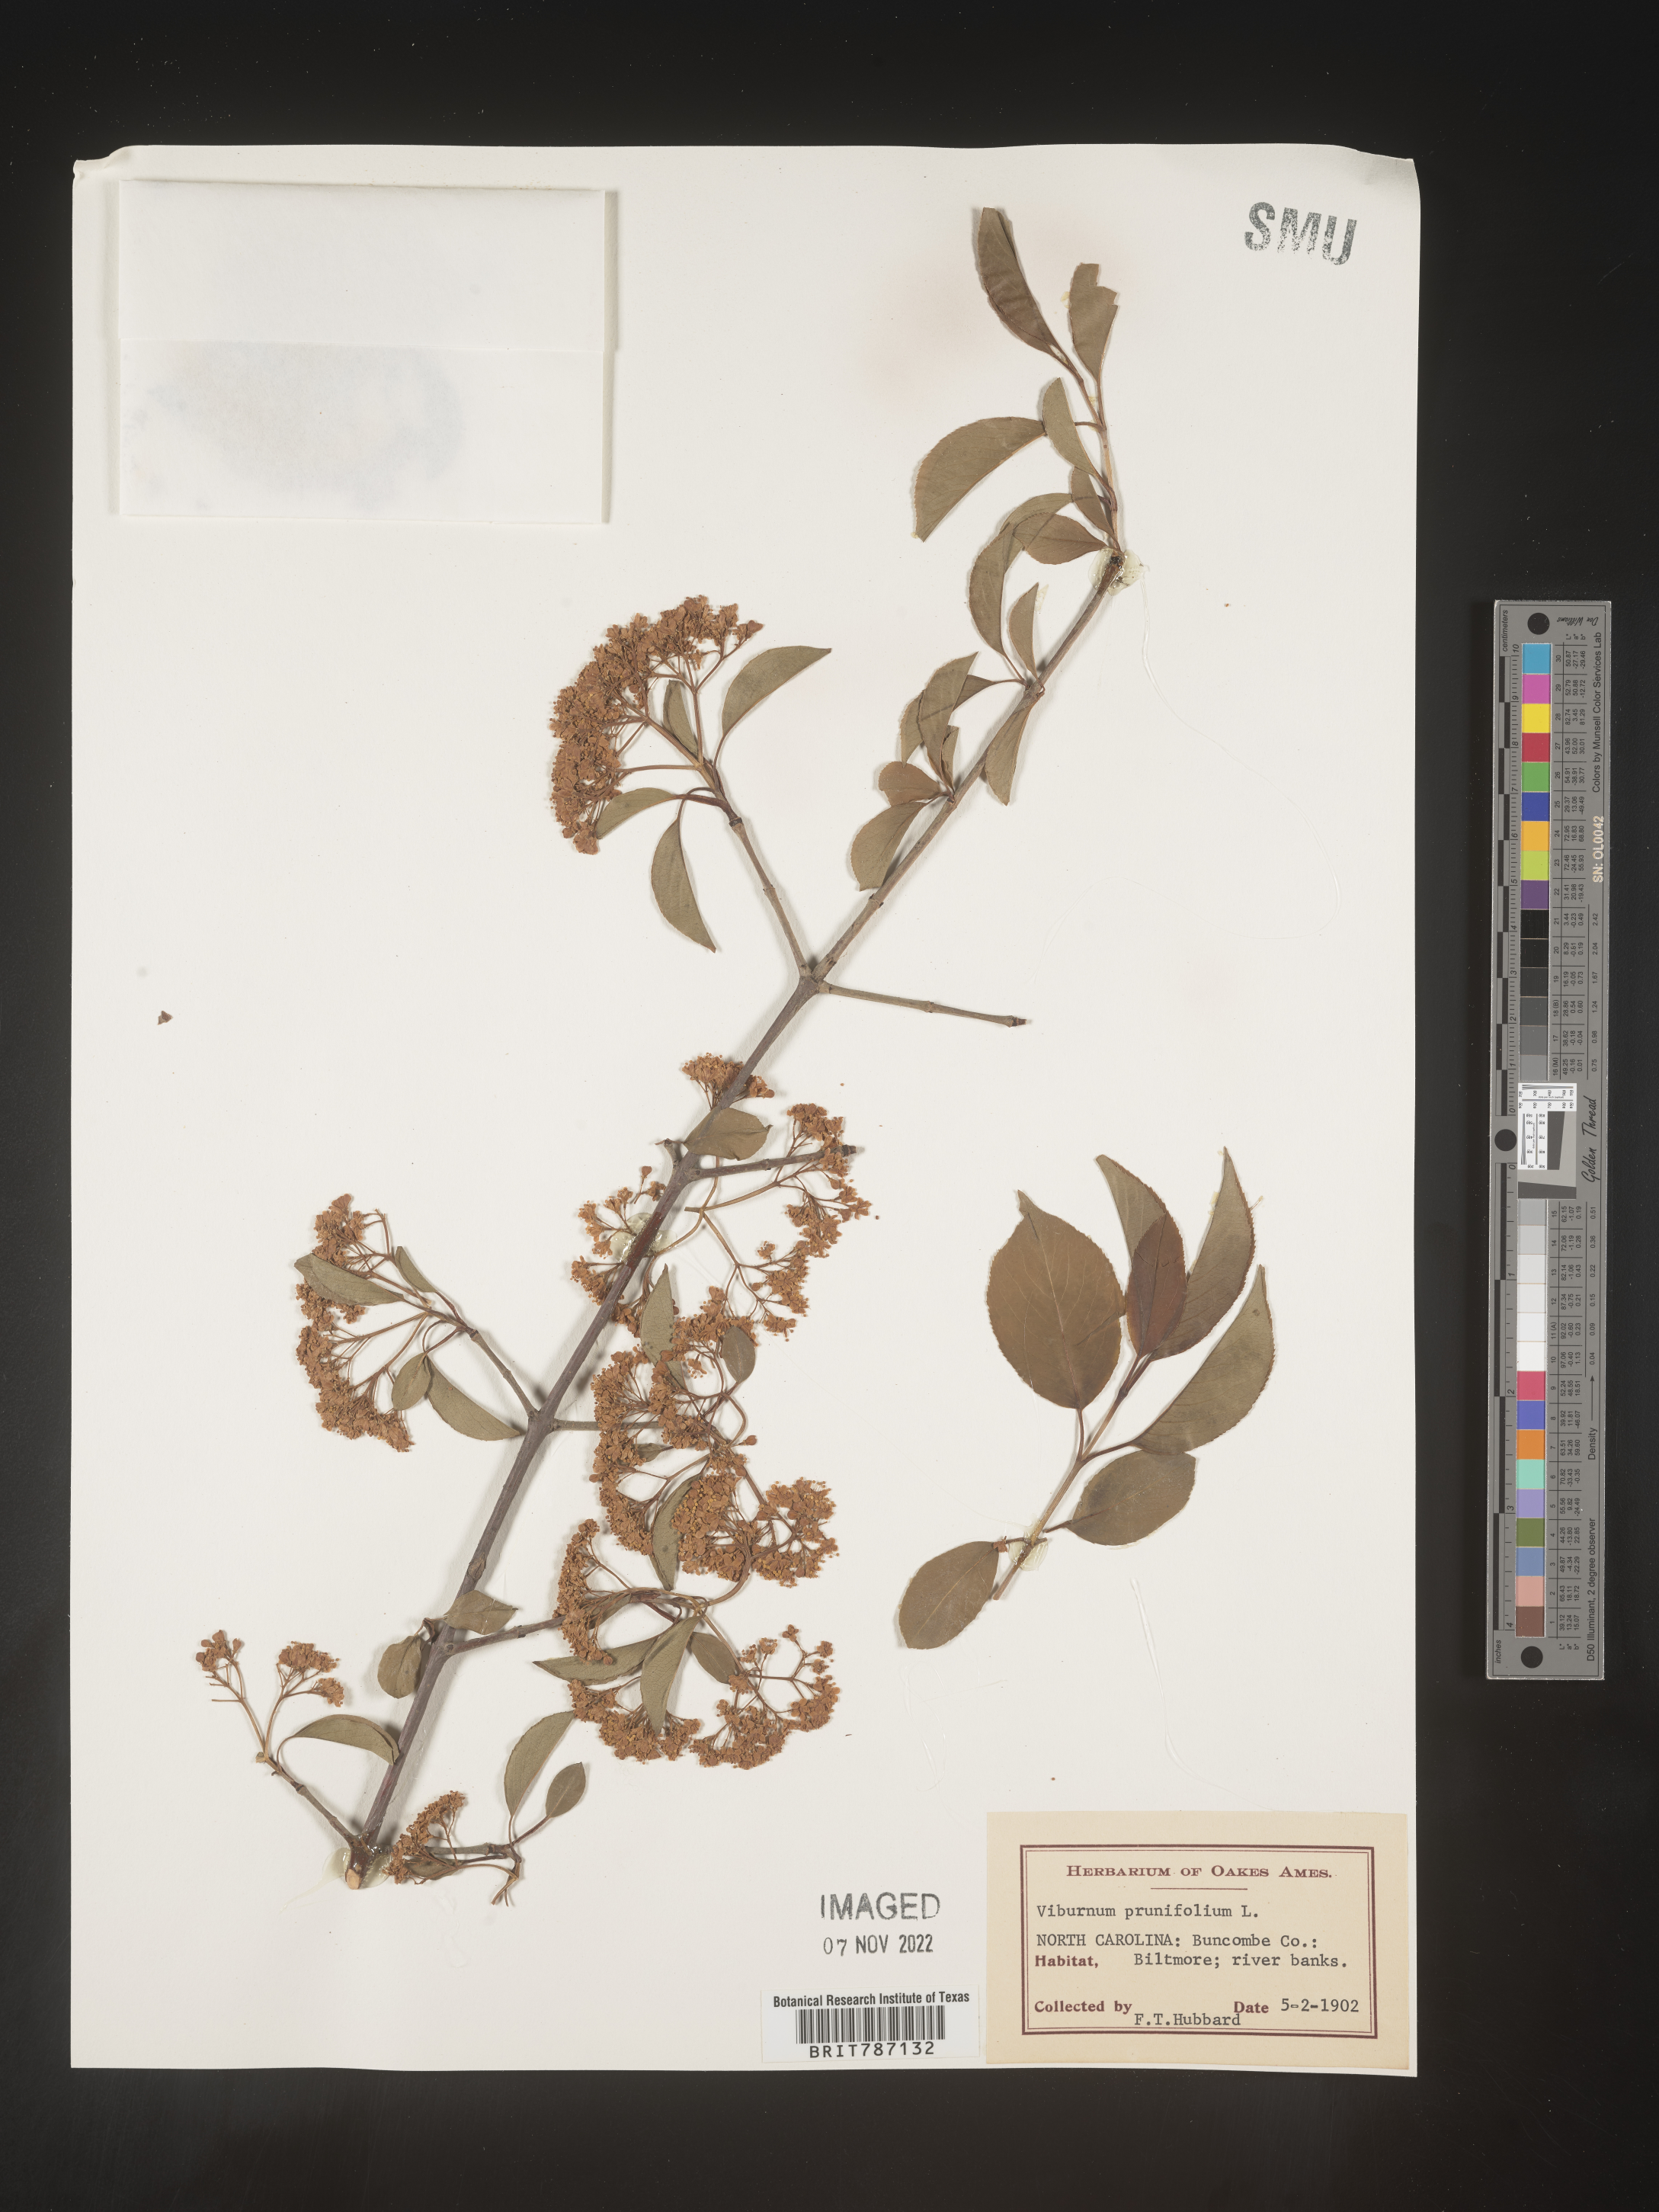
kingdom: Plantae
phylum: Tracheophyta
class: Magnoliopsida
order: Dipsacales
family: Viburnaceae
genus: Viburnum
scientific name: Viburnum prunifolium
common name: Black haw
